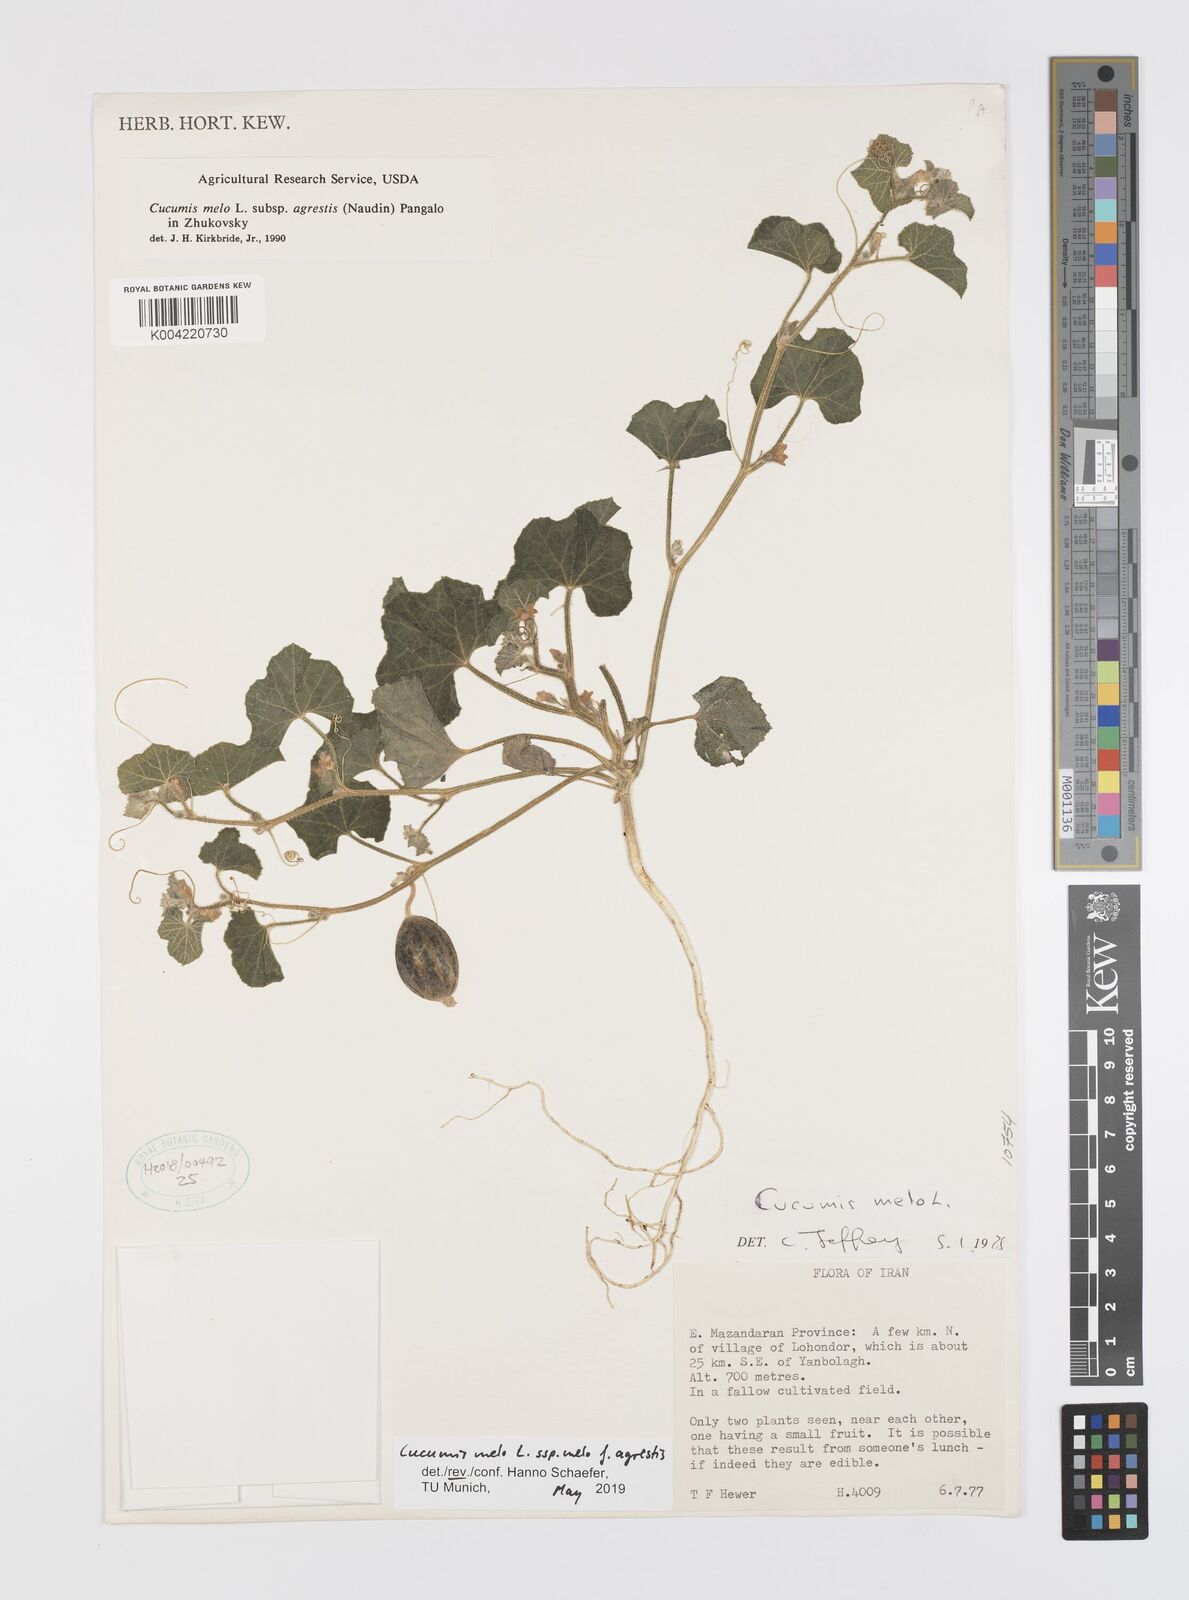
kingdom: Plantae
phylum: Tracheophyta
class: Magnoliopsida
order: Cucurbitales
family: Cucurbitaceae
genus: Cucumis
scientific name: Cucumis melo
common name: Melon
